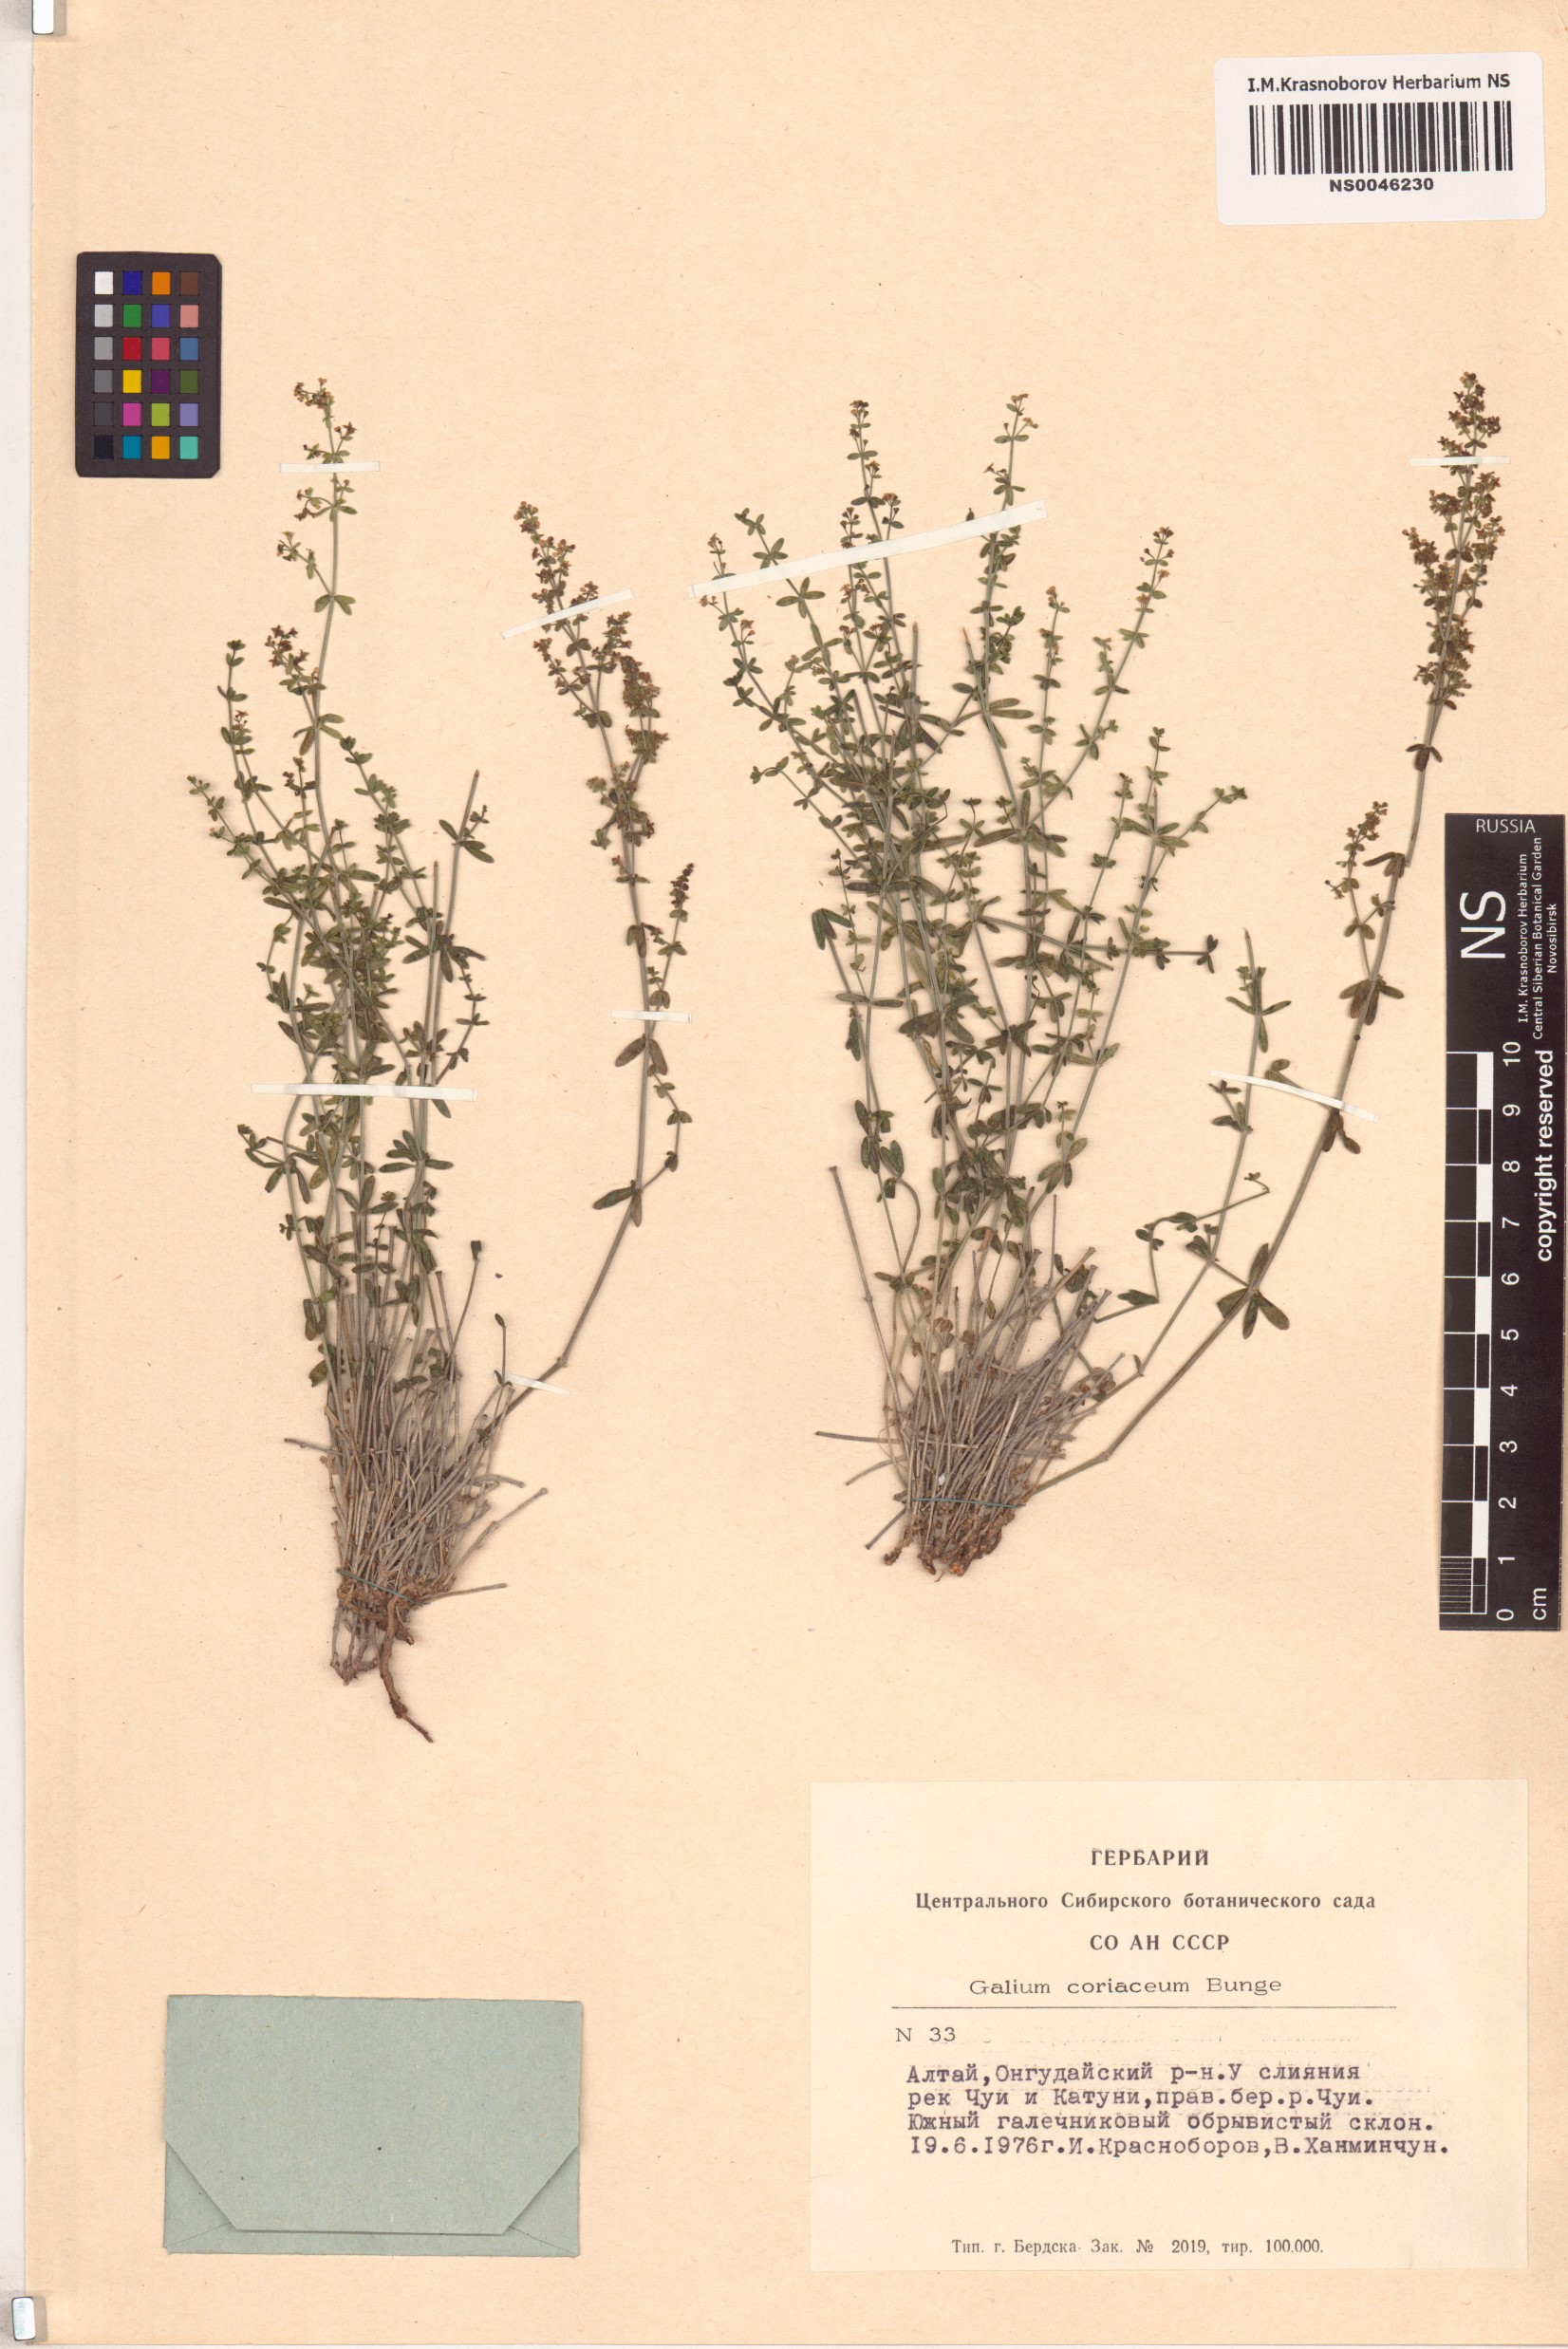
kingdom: Plantae
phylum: Tracheophyta
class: Magnoliopsida
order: Gentianales
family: Rubiaceae
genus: Galium
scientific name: Galium coriaceum
